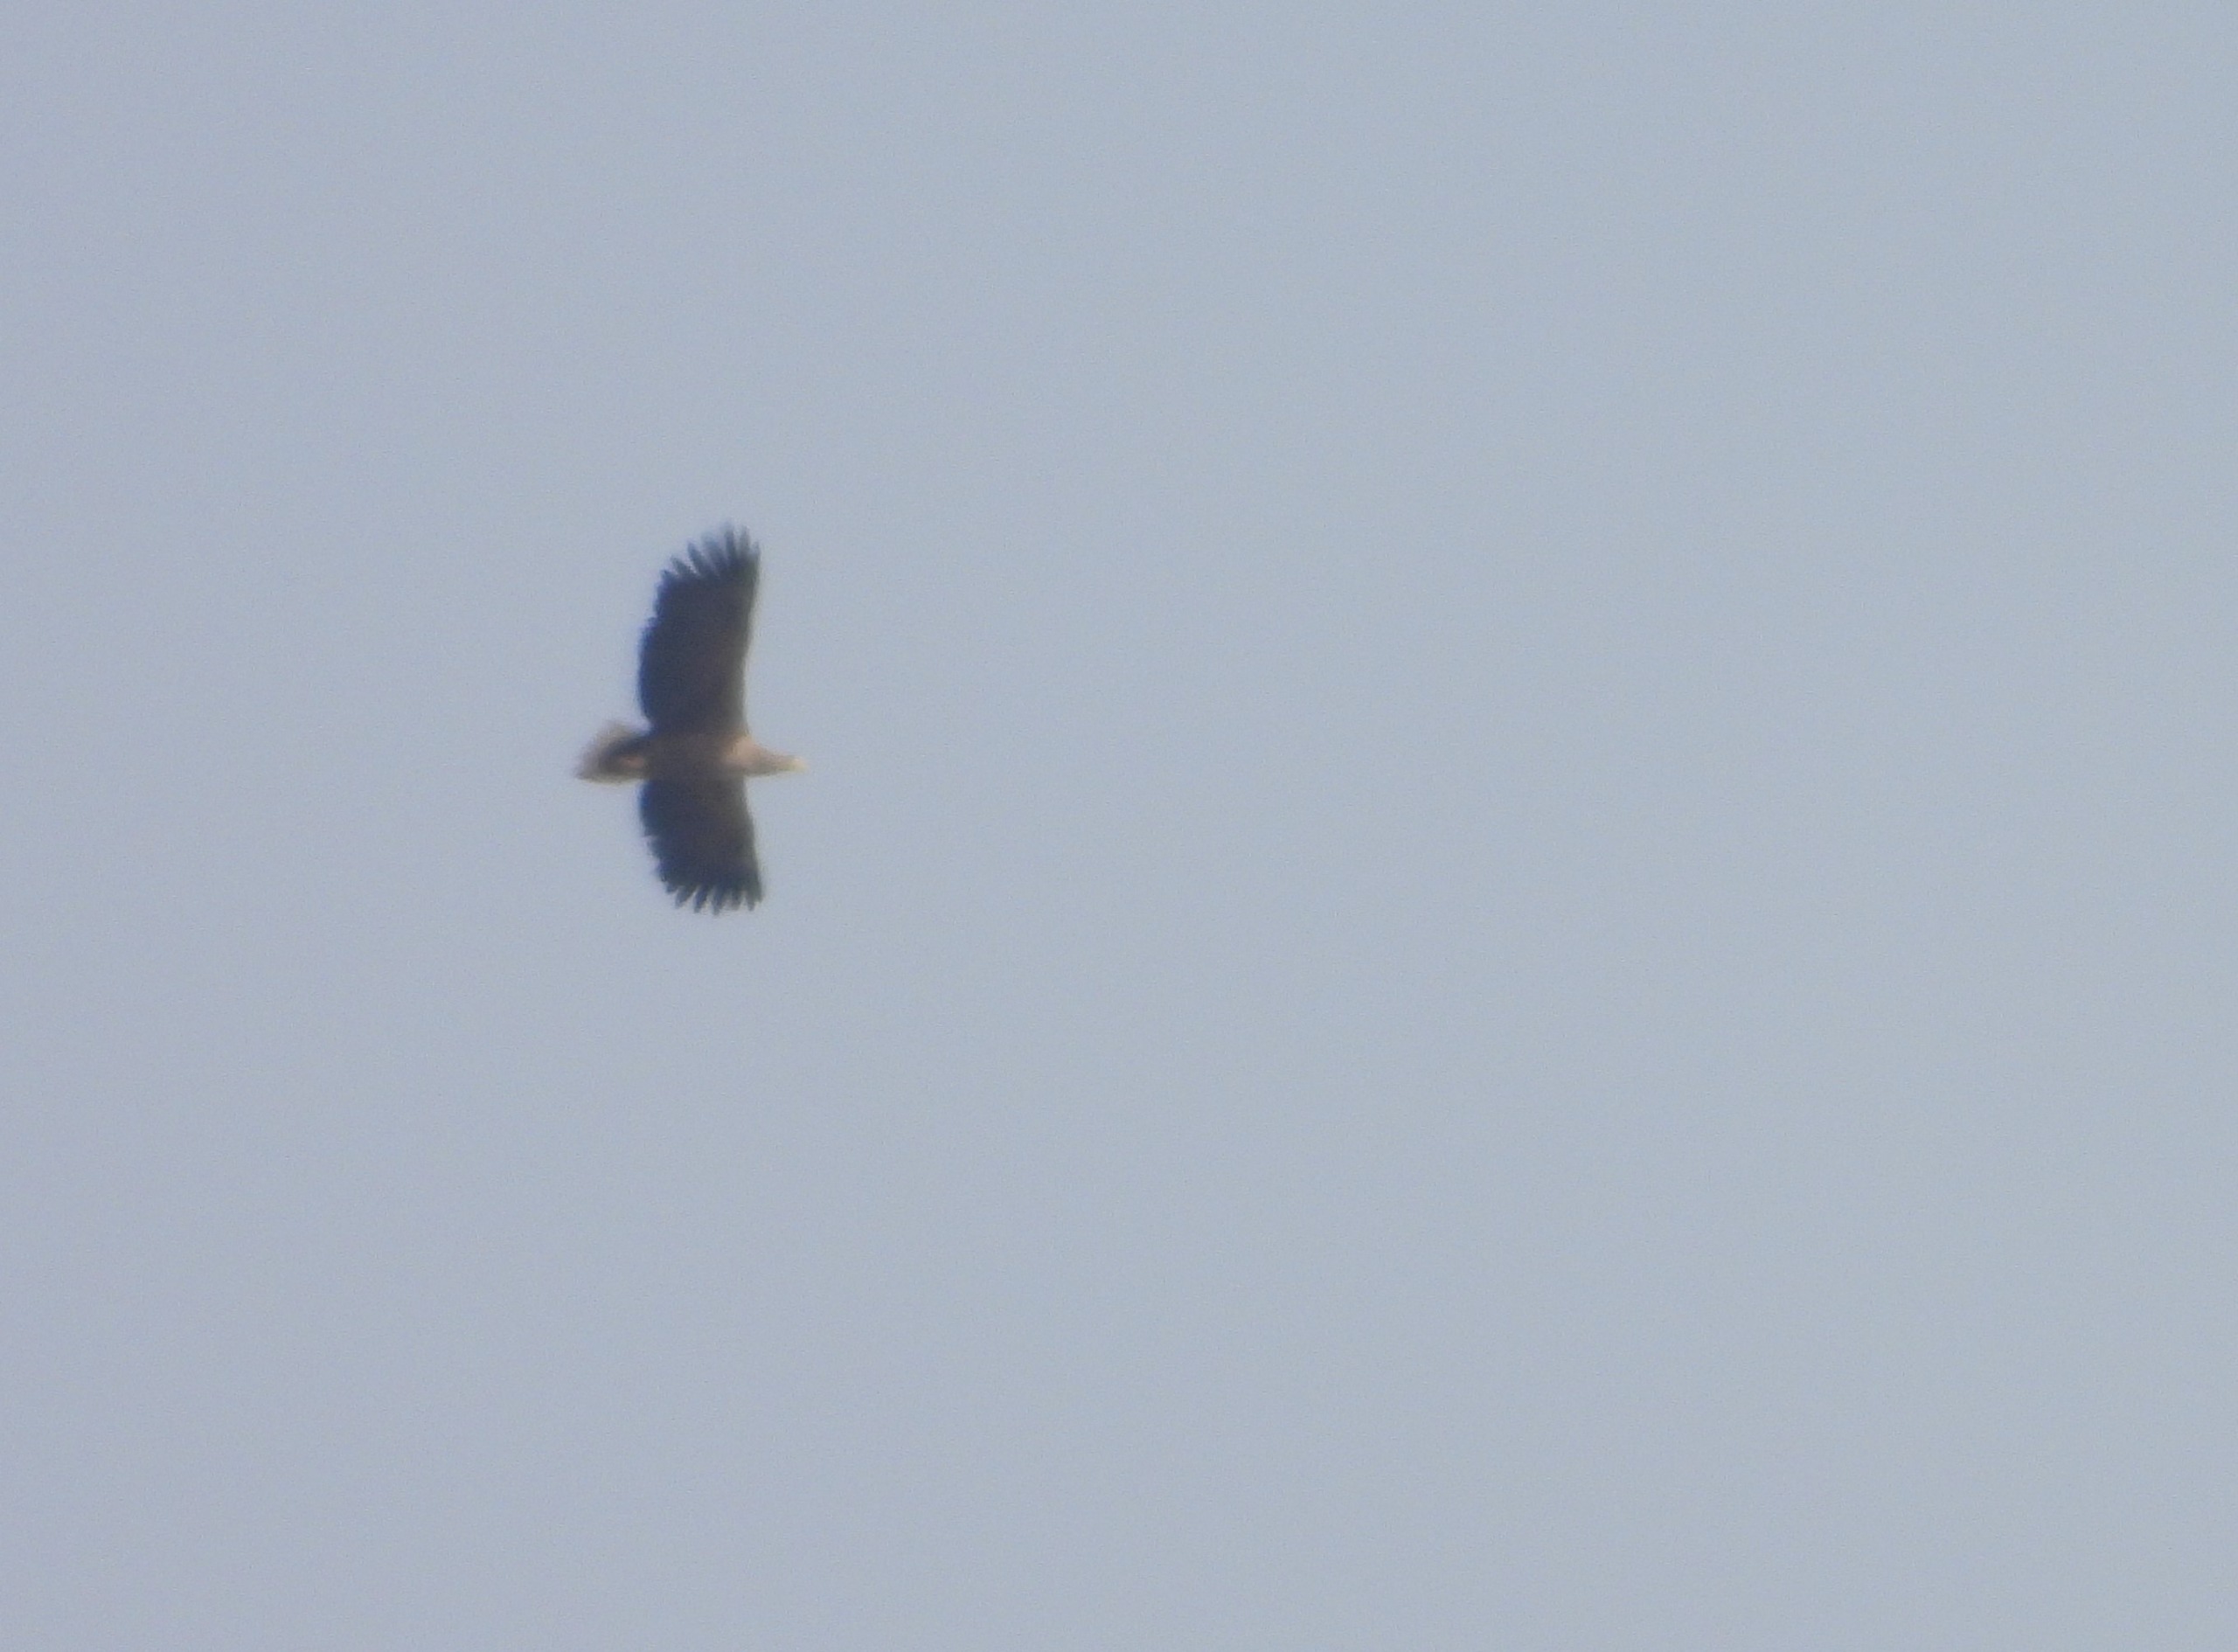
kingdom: Animalia
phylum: Chordata
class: Aves
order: Accipitriformes
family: Accipitridae
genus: Haliaeetus
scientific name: Haliaeetus albicilla
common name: Havørn
